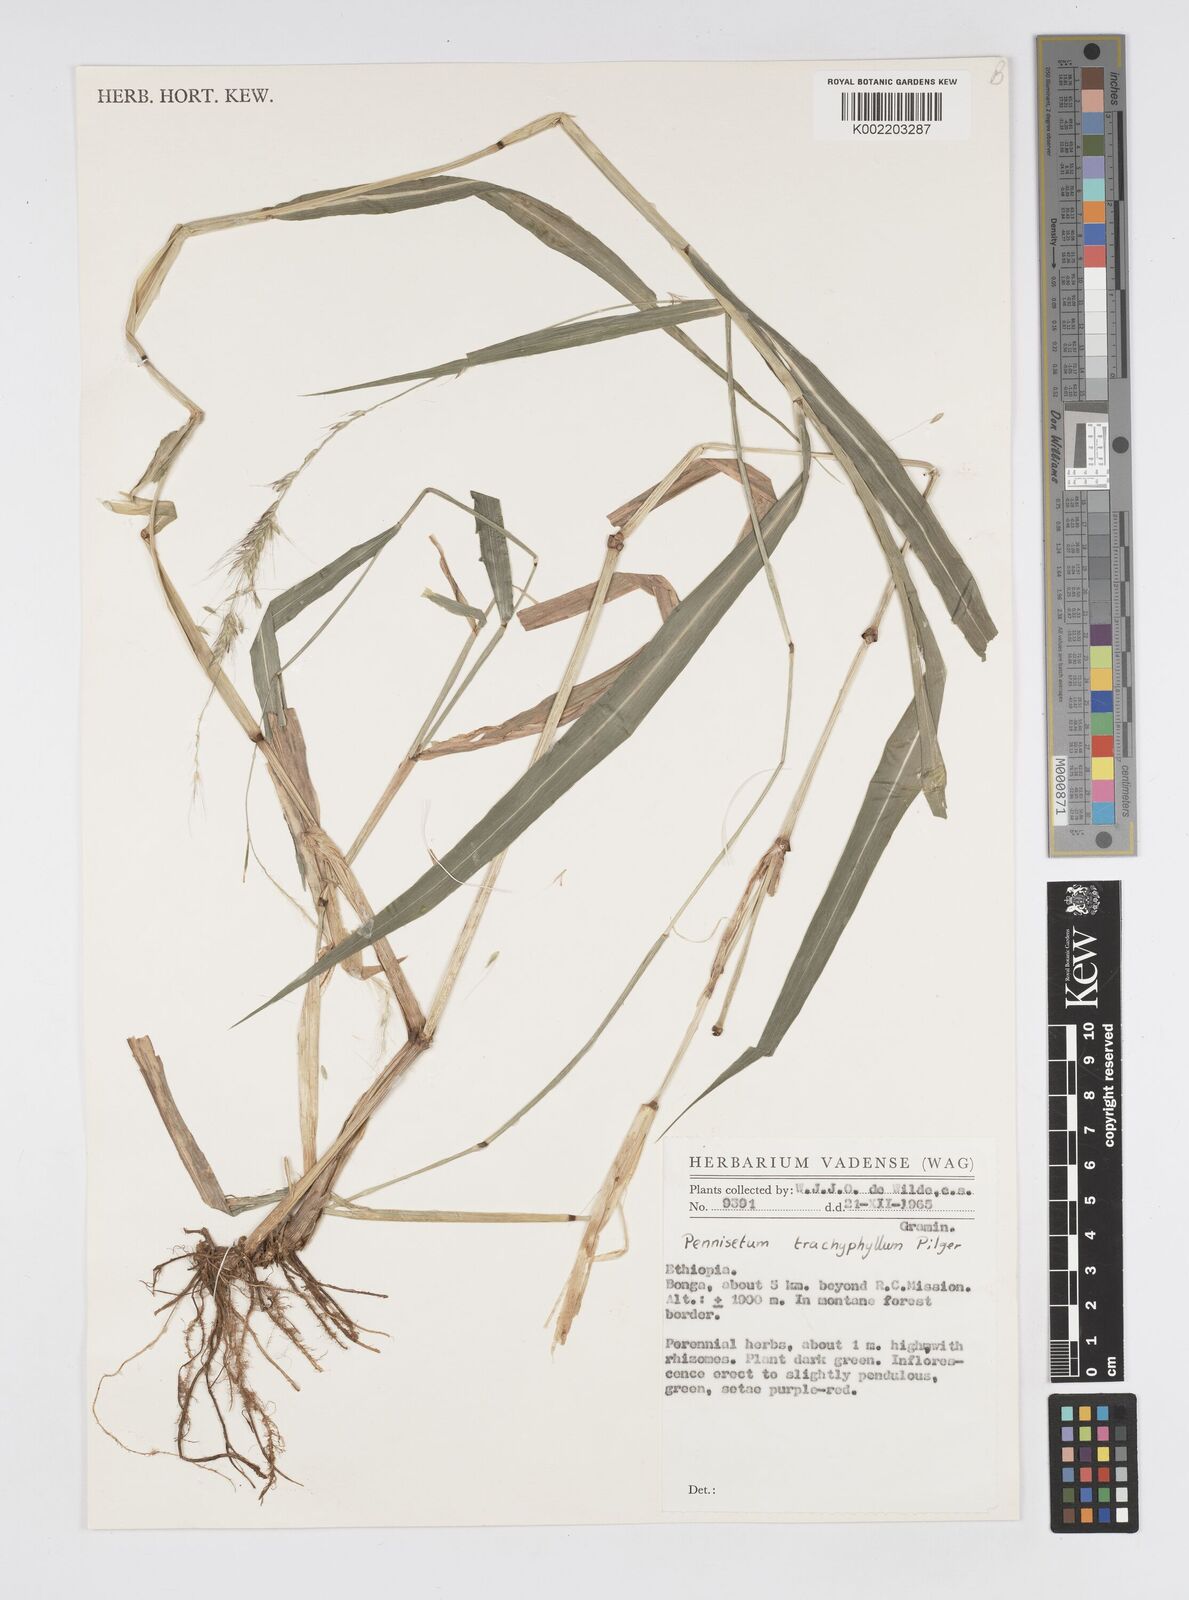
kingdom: Plantae
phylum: Tracheophyta
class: Liliopsida
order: Poales
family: Poaceae
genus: Cenchrus
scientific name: Cenchrus trachyphyllus
